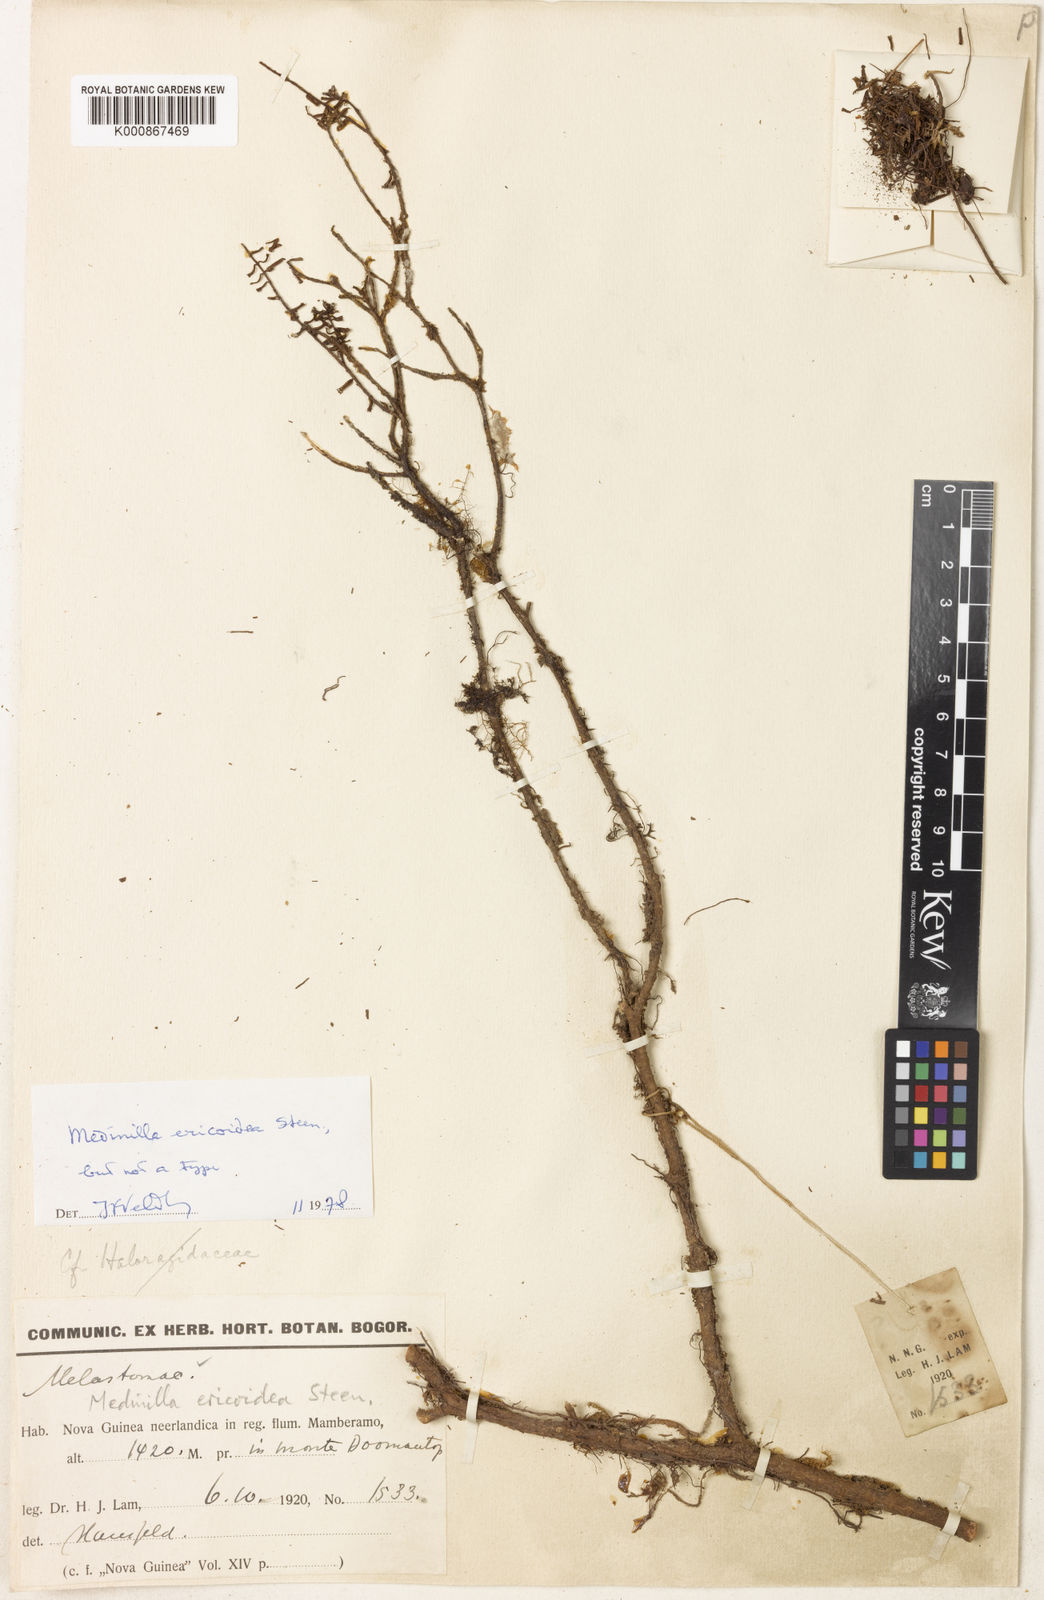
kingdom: Plantae
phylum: Tracheophyta
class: Magnoliopsida
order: Myrtales
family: Melastomataceae
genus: Medinilla
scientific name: Medinilla ericoidea
